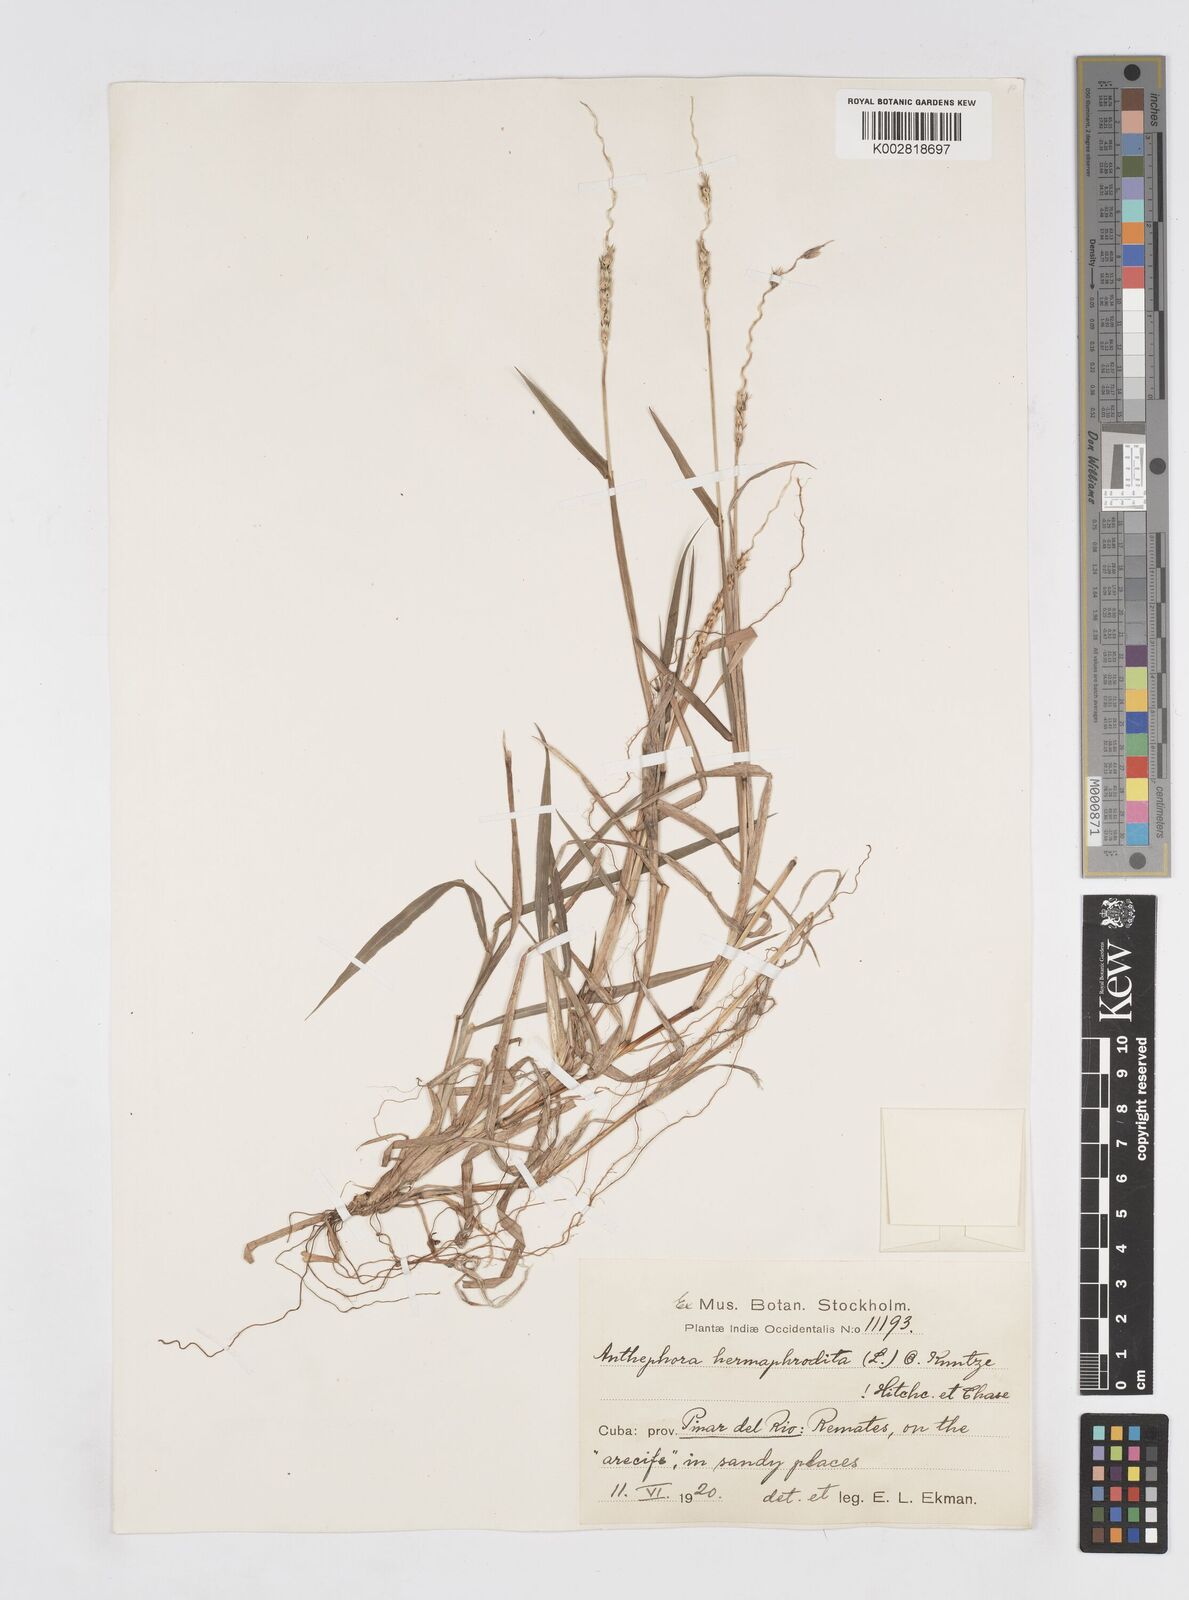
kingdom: Plantae
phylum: Tracheophyta
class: Liliopsida
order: Poales
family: Poaceae
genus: Anthephora
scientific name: Anthephora hermaphrodita
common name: Oldfield grass
